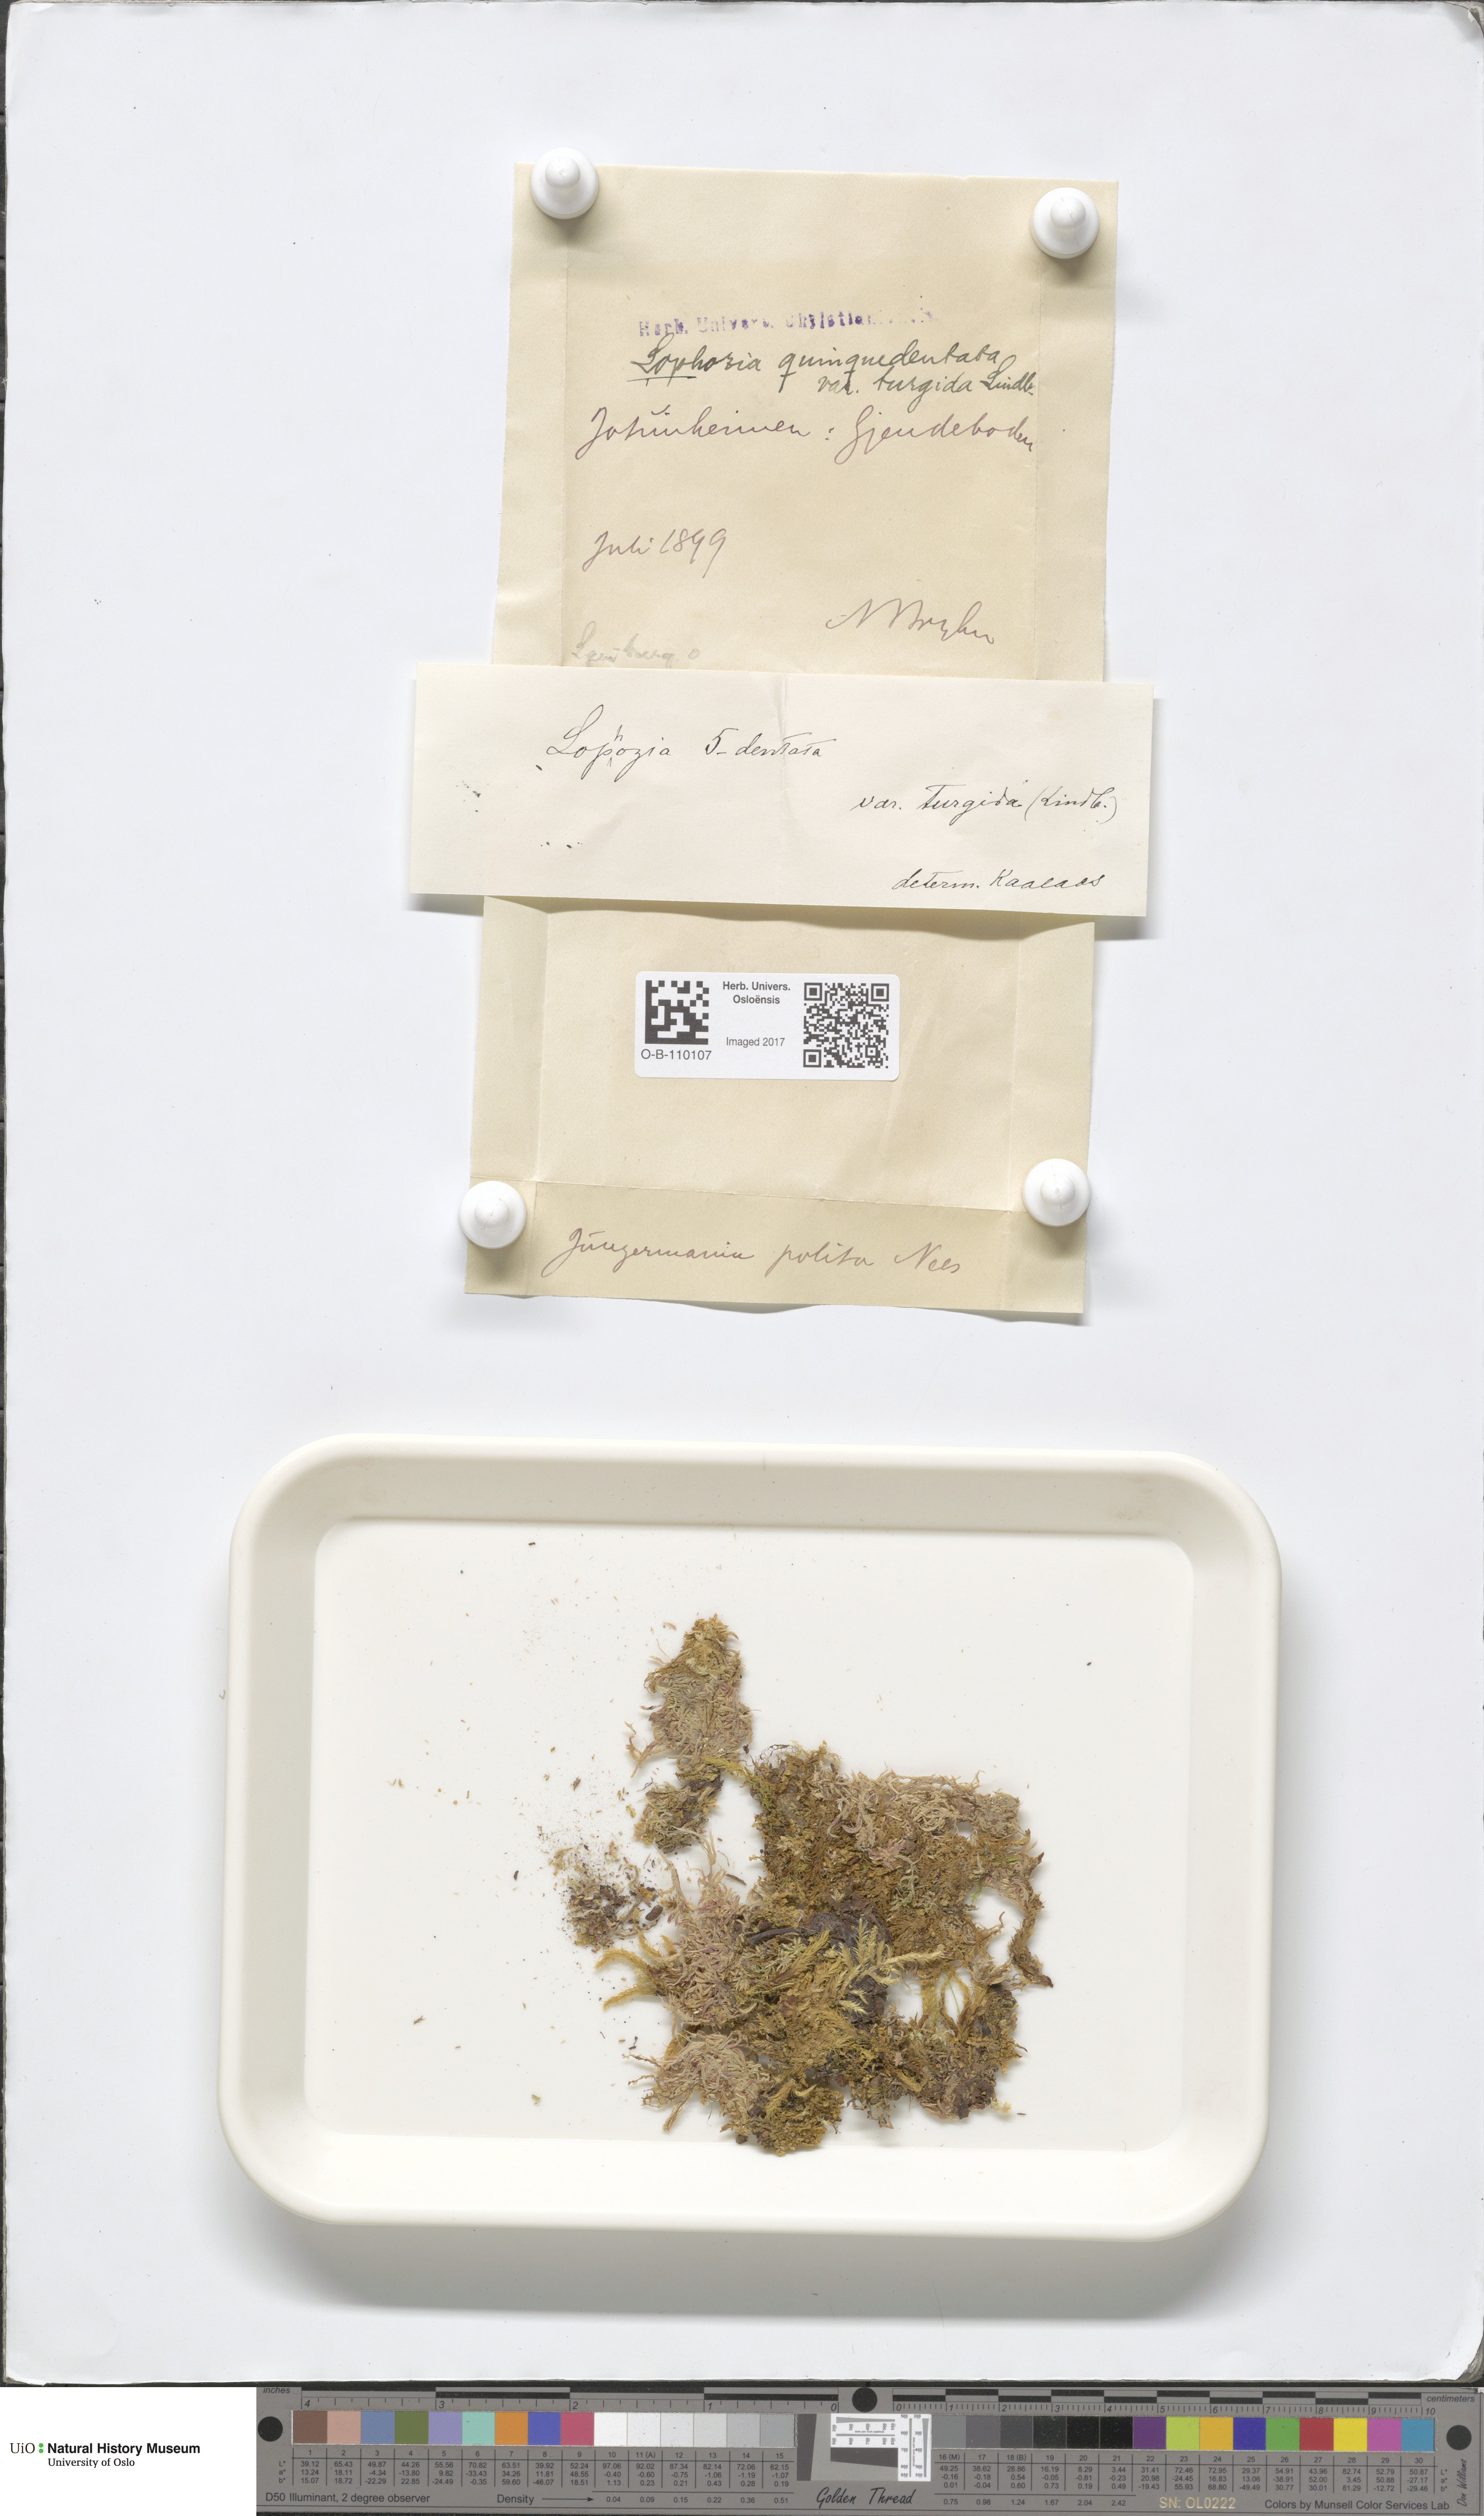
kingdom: Plantae
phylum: Marchantiophyta
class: Jungermanniopsida
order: Jungermanniales
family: Lophoziaceae
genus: Trilophozia
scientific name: Trilophozia quinquedentata
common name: Large notchwort
